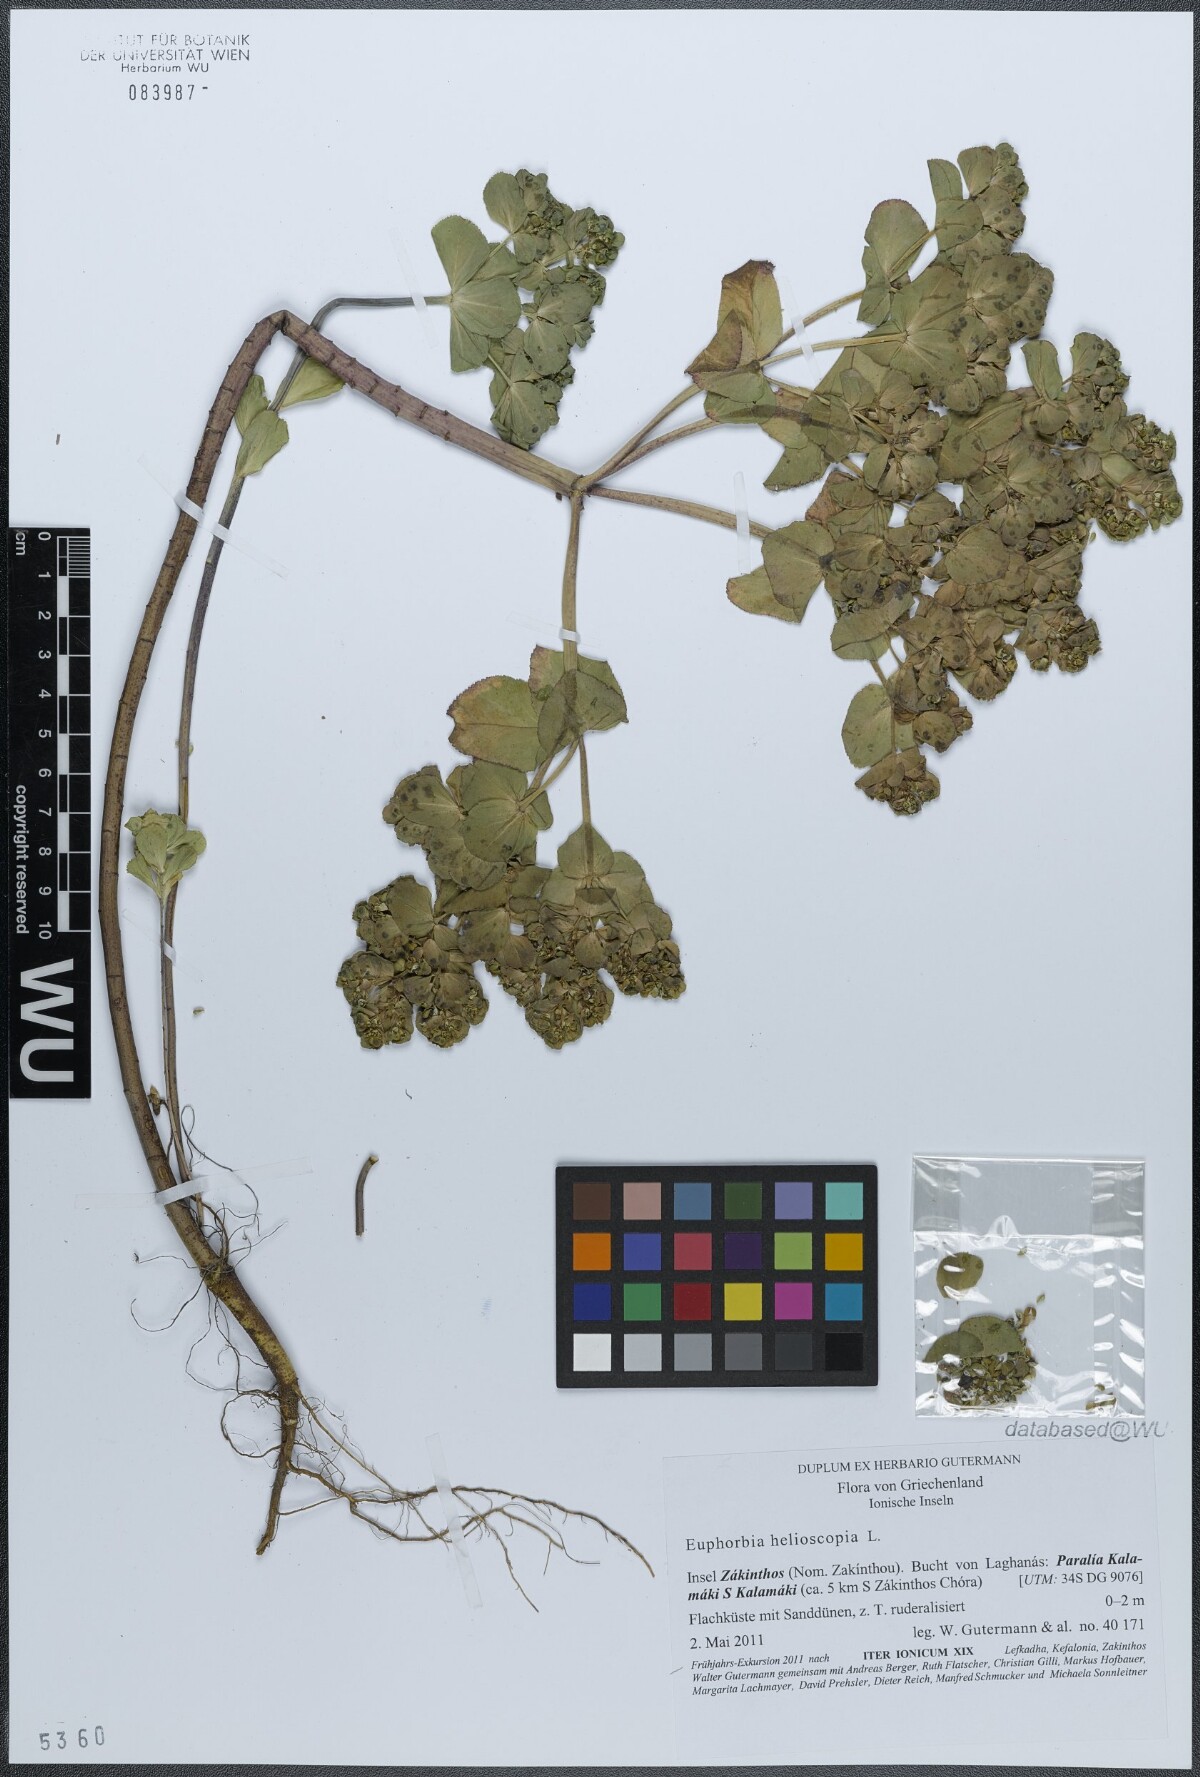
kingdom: Plantae
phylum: Tracheophyta
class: Magnoliopsida
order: Malpighiales
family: Euphorbiaceae
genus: Euphorbia
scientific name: Euphorbia helioscopia
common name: Sun spurge
